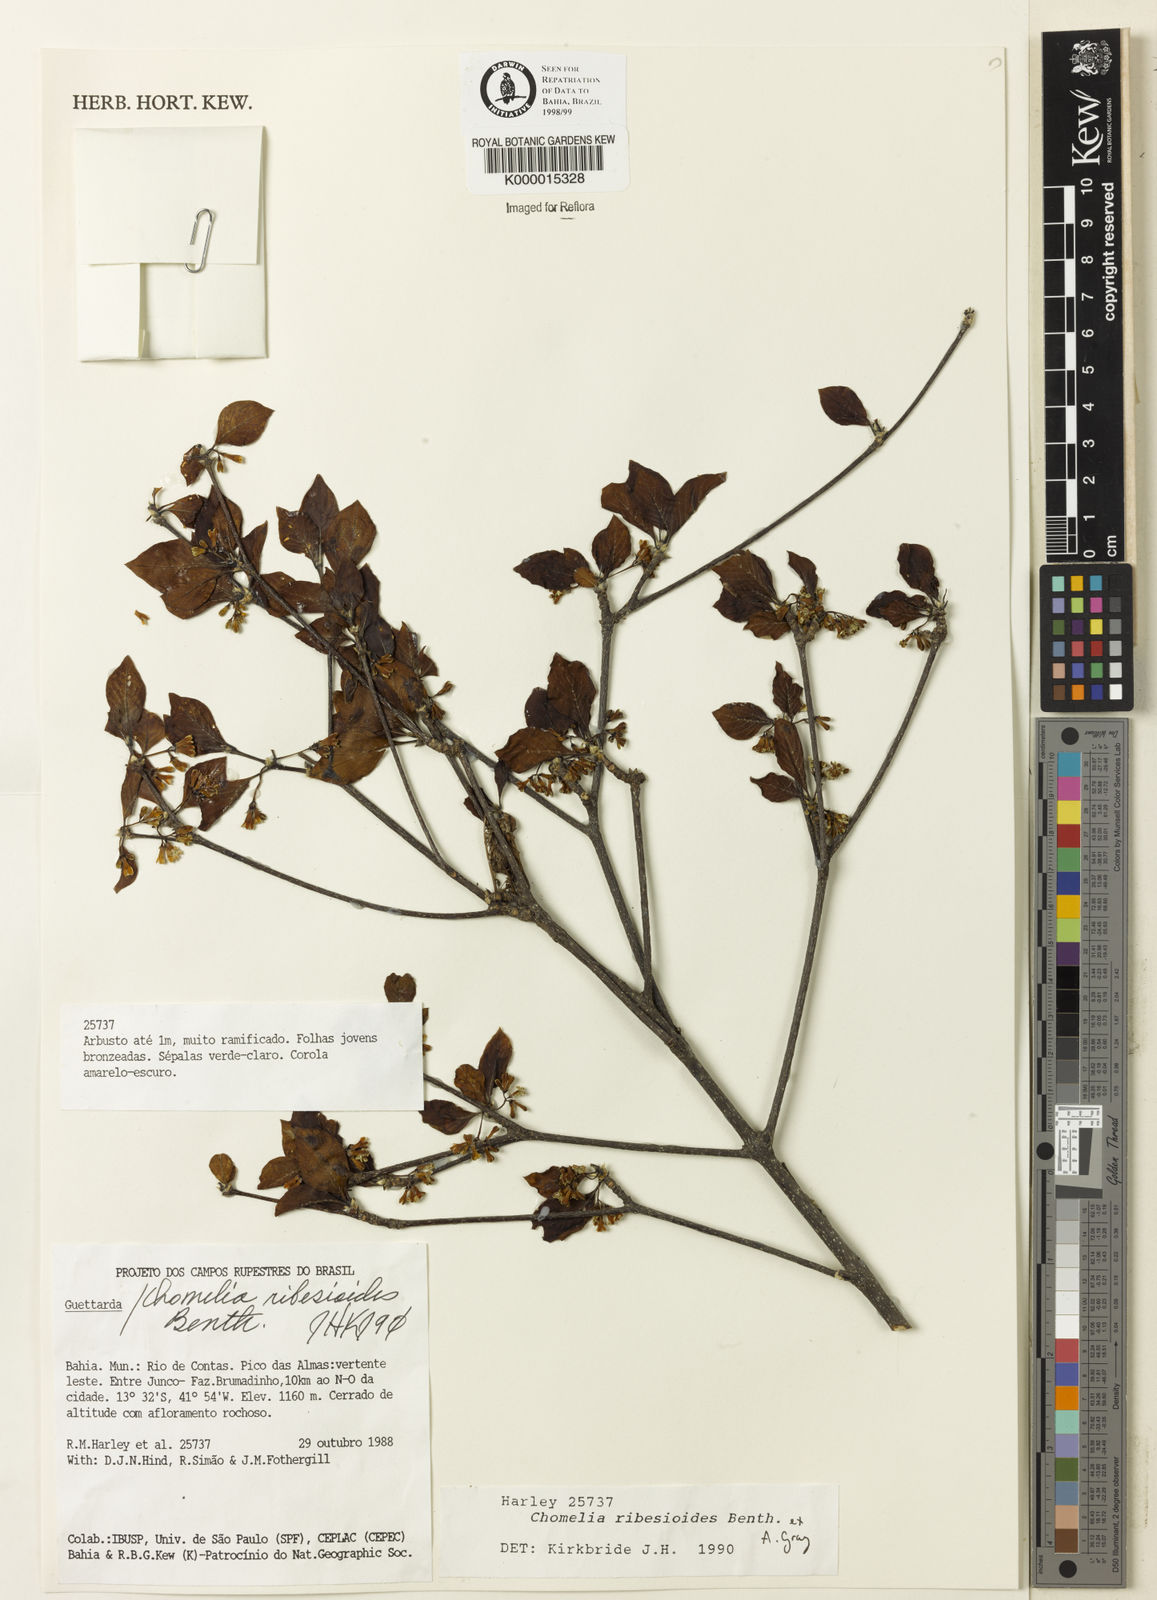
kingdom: Plantae
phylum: Tracheophyta
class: Magnoliopsida
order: Gentianales
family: Rubiaceae
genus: Chomelia
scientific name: Chomelia ribesioides
